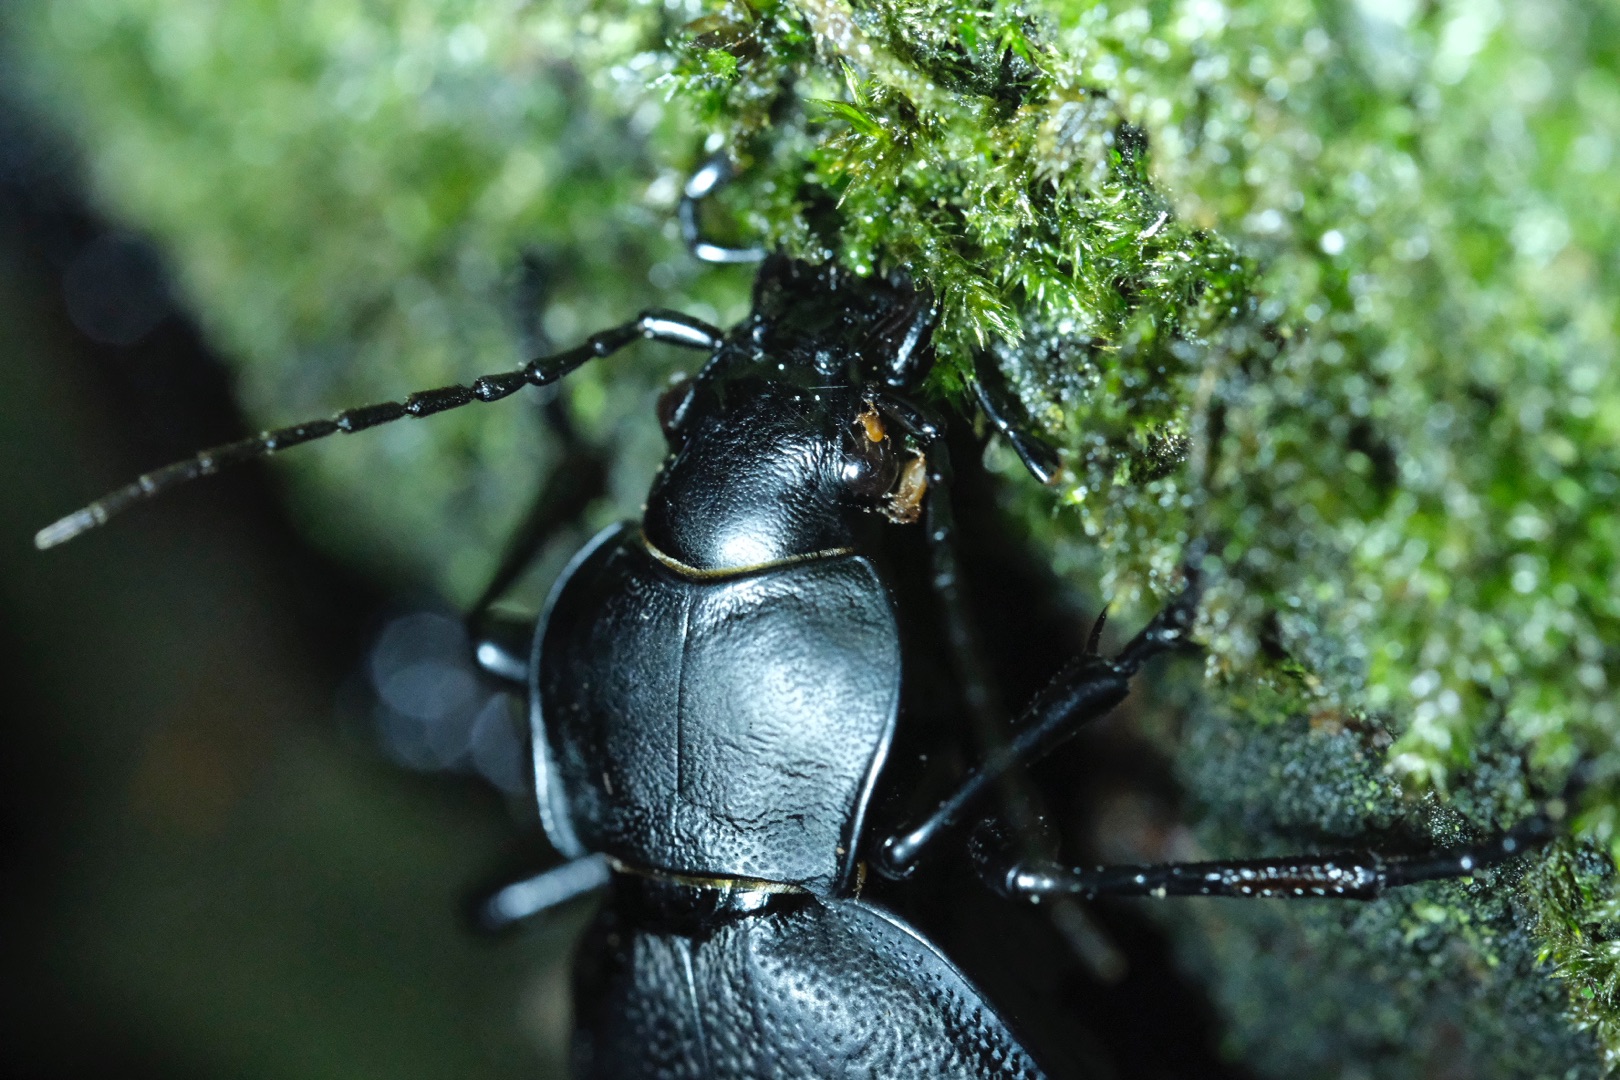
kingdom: Animalia
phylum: Arthropoda
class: Insecta
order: Coleoptera
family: Carabidae
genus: Carabus
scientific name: Carabus coriaceus
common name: Læderløber
